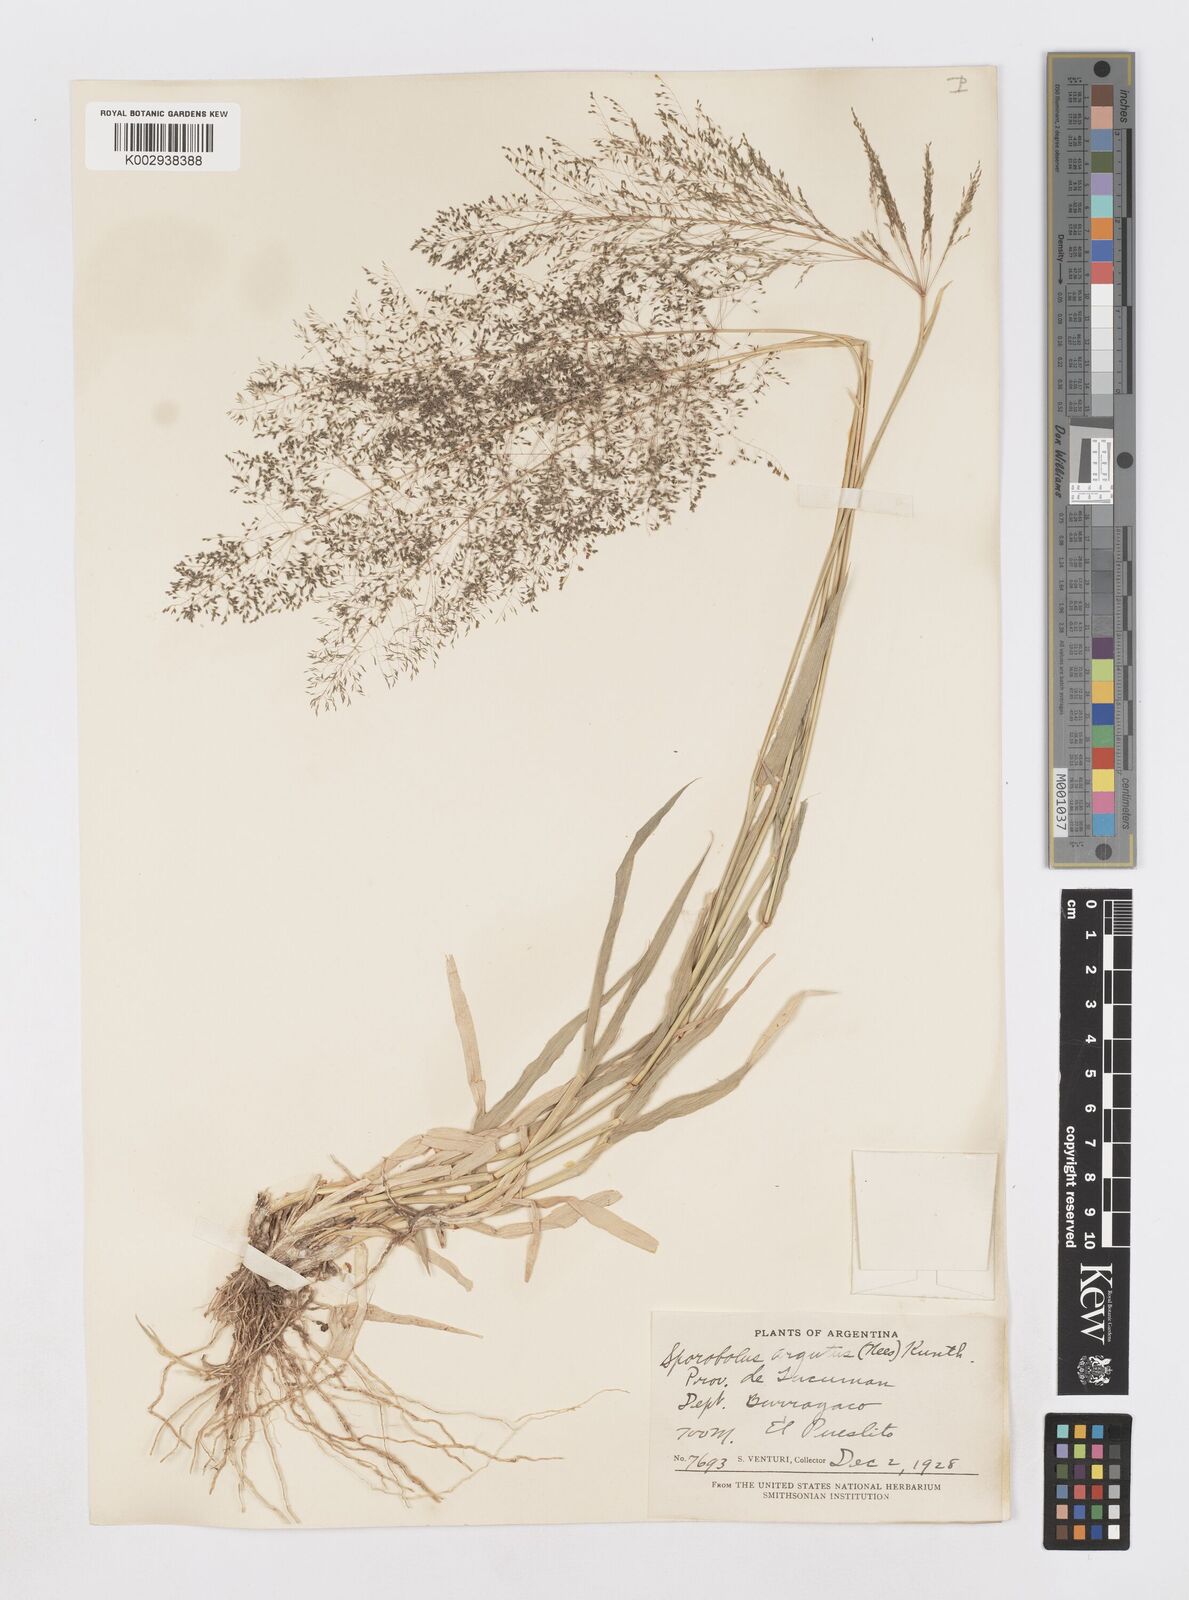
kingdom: Plantae
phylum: Tracheophyta
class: Liliopsida
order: Poales
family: Poaceae
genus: Sporobolus
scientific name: Sporobolus pyramidatus
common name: Whorled dropseed
